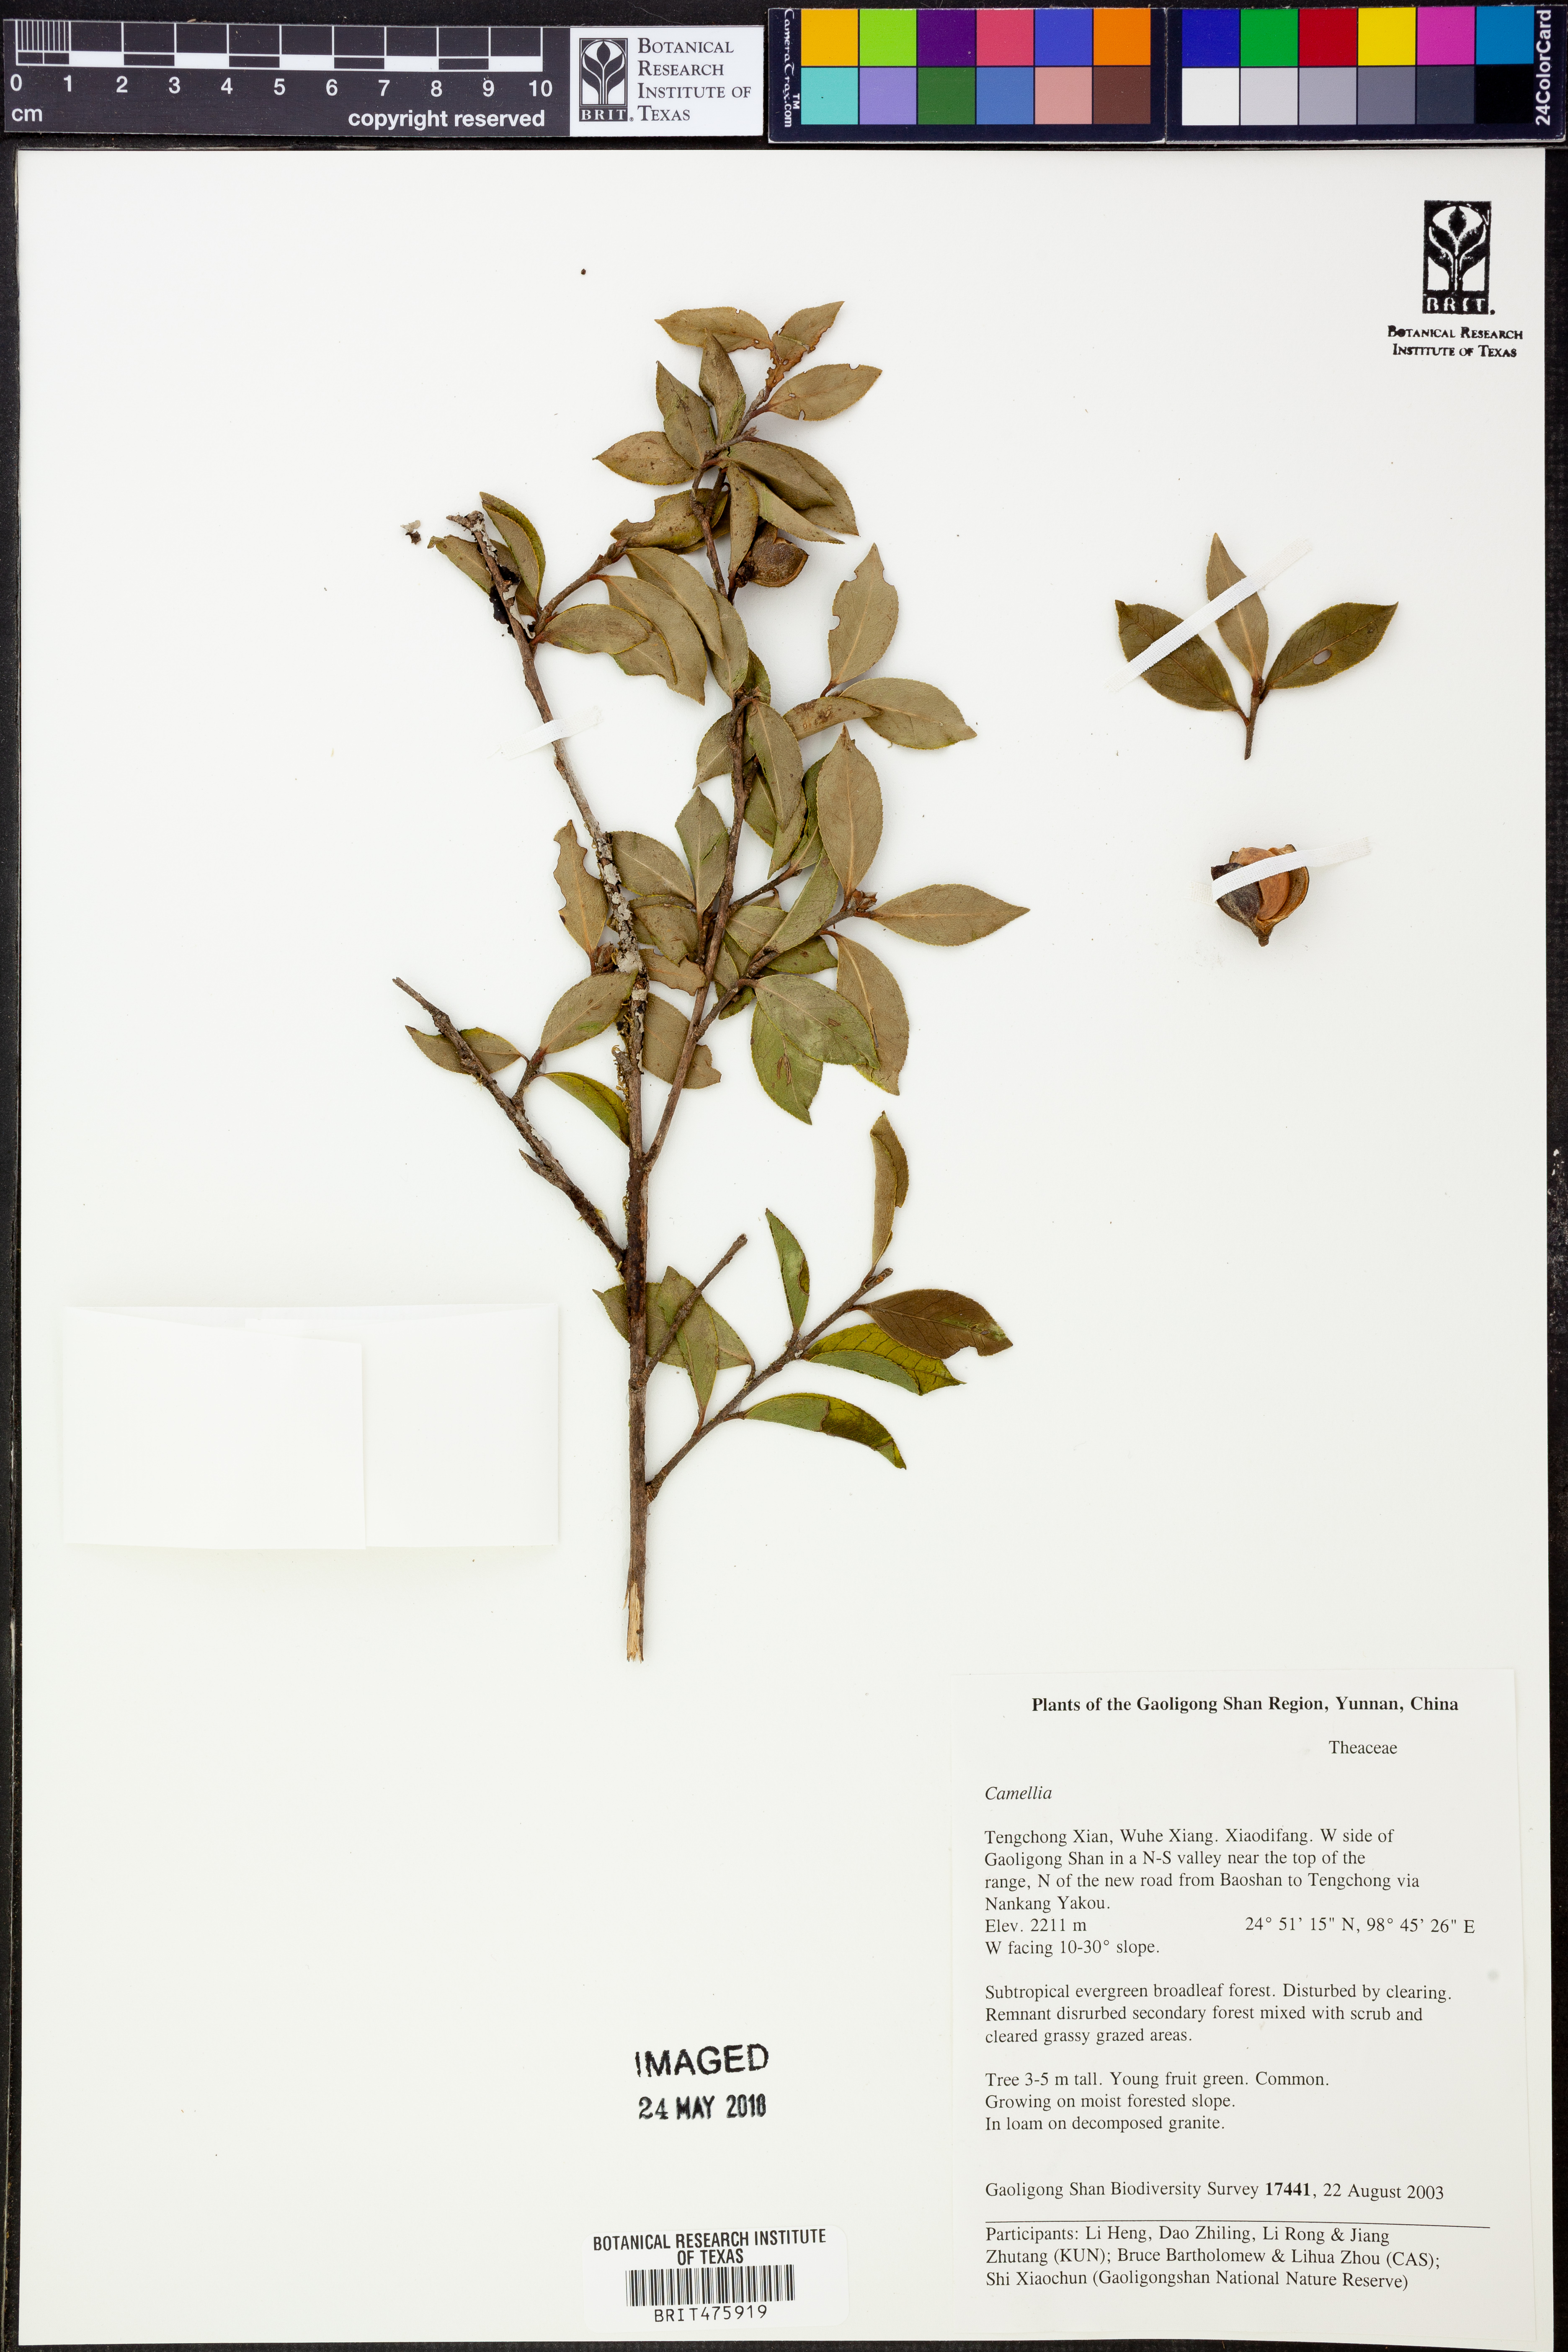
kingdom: Plantae
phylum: Tracheophyta
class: Magnoliopsida
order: Ericales
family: Theaceae
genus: Camellia
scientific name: Camellia
